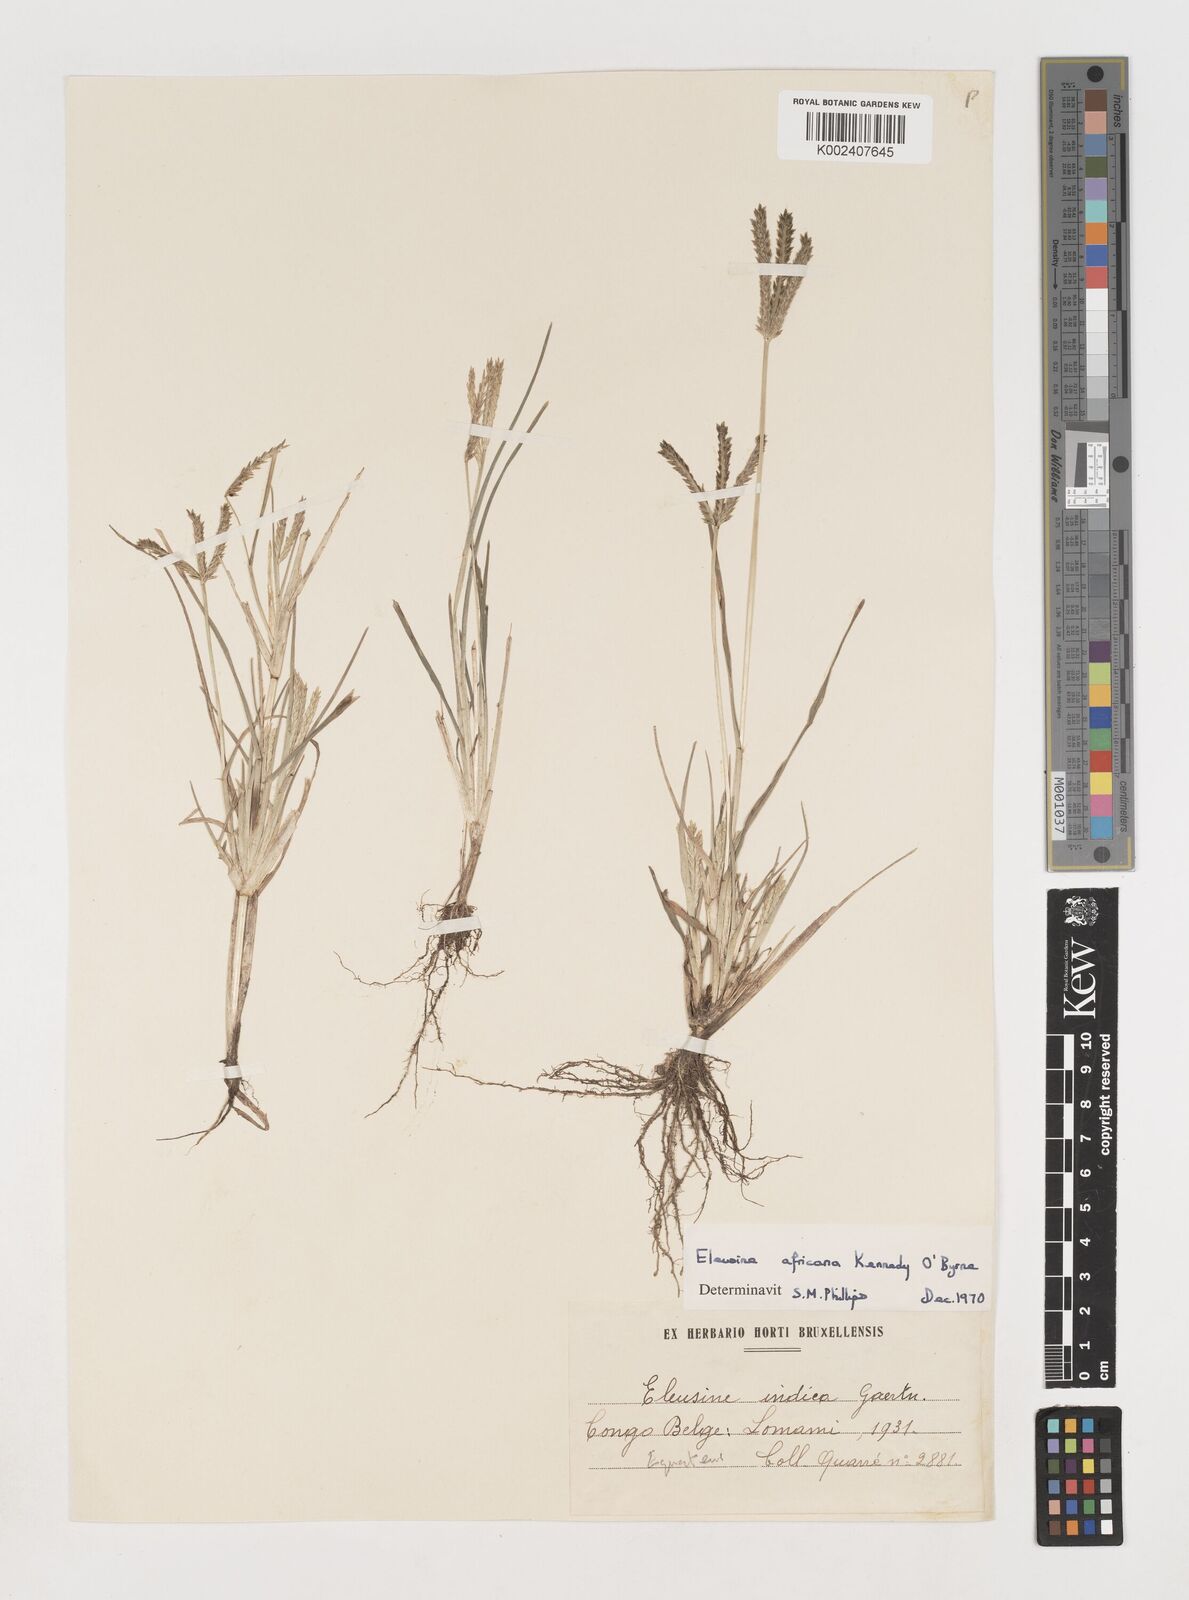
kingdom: Plantae
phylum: Tracheophyta
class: Liliopsida
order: Poales
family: Poaceae
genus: Eleusine
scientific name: Eleusine africana
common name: Wild african finger millet
